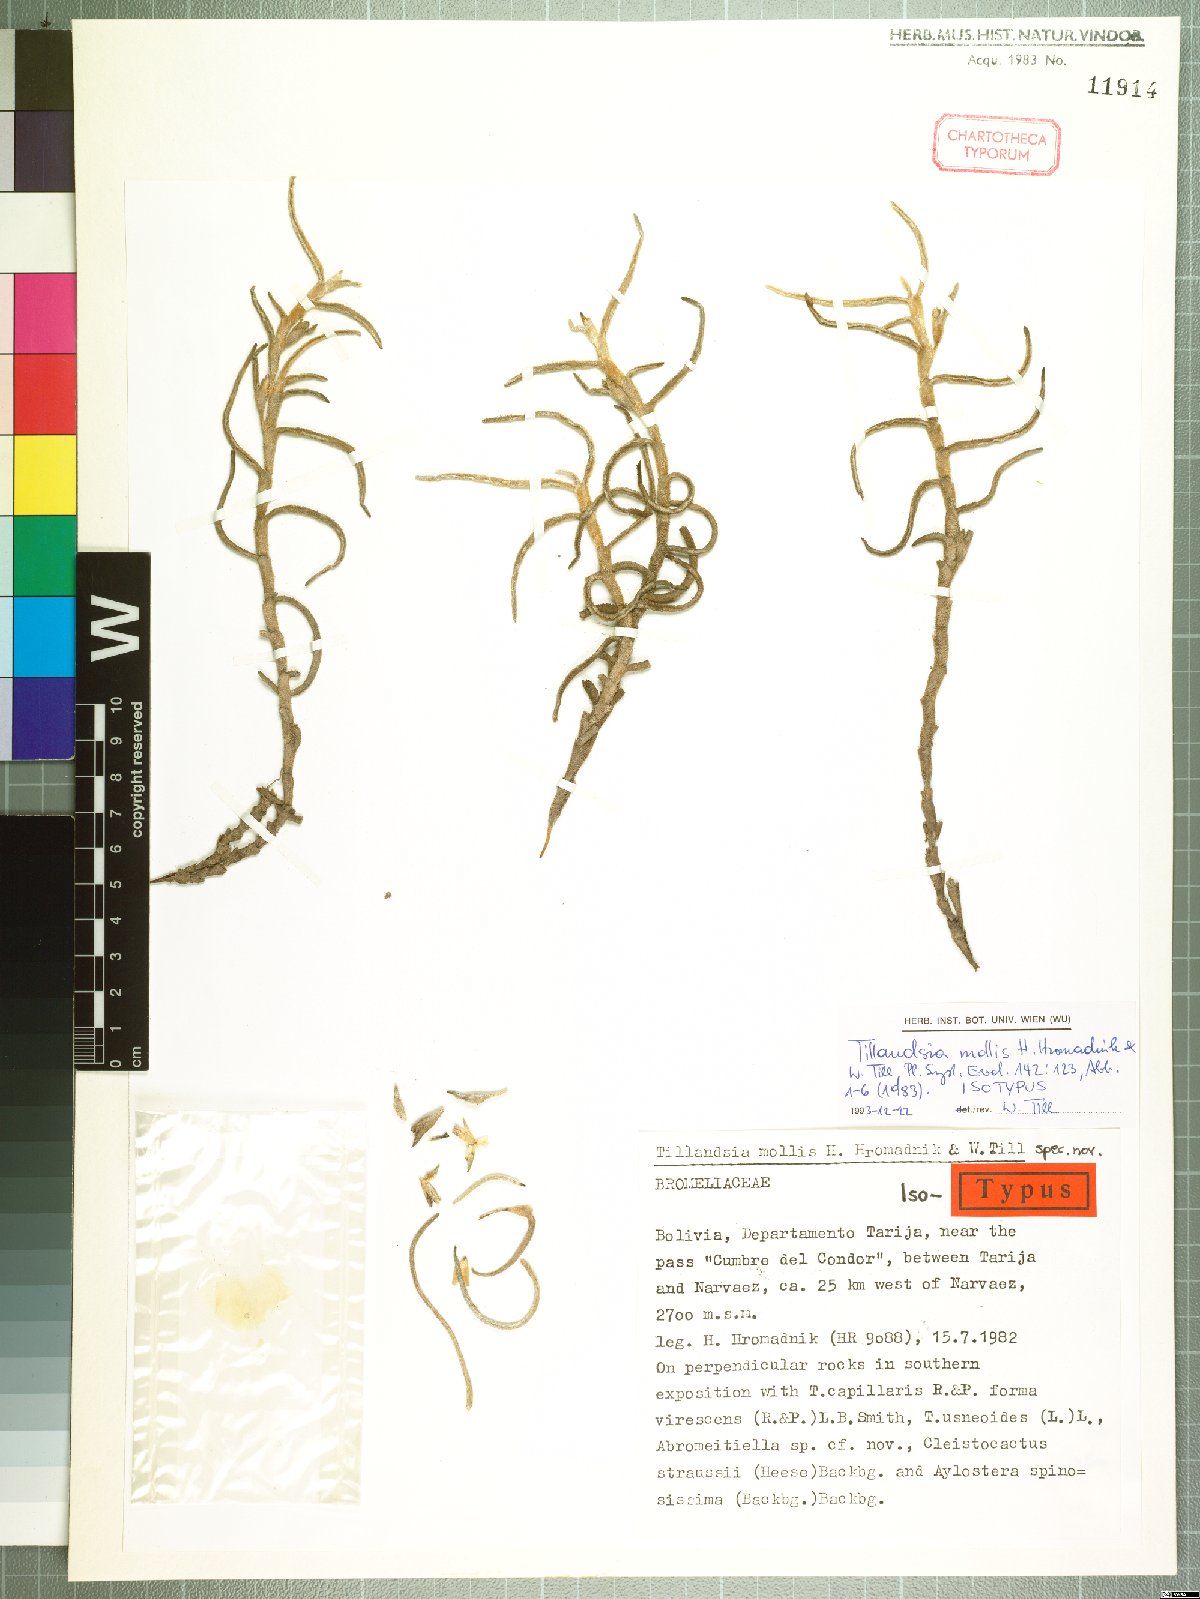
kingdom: Plantae
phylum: Tracheophyta
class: Liliopsida
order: Poales
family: Bromeliaceae
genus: Tillandsia
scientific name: Tillandsia mollis
